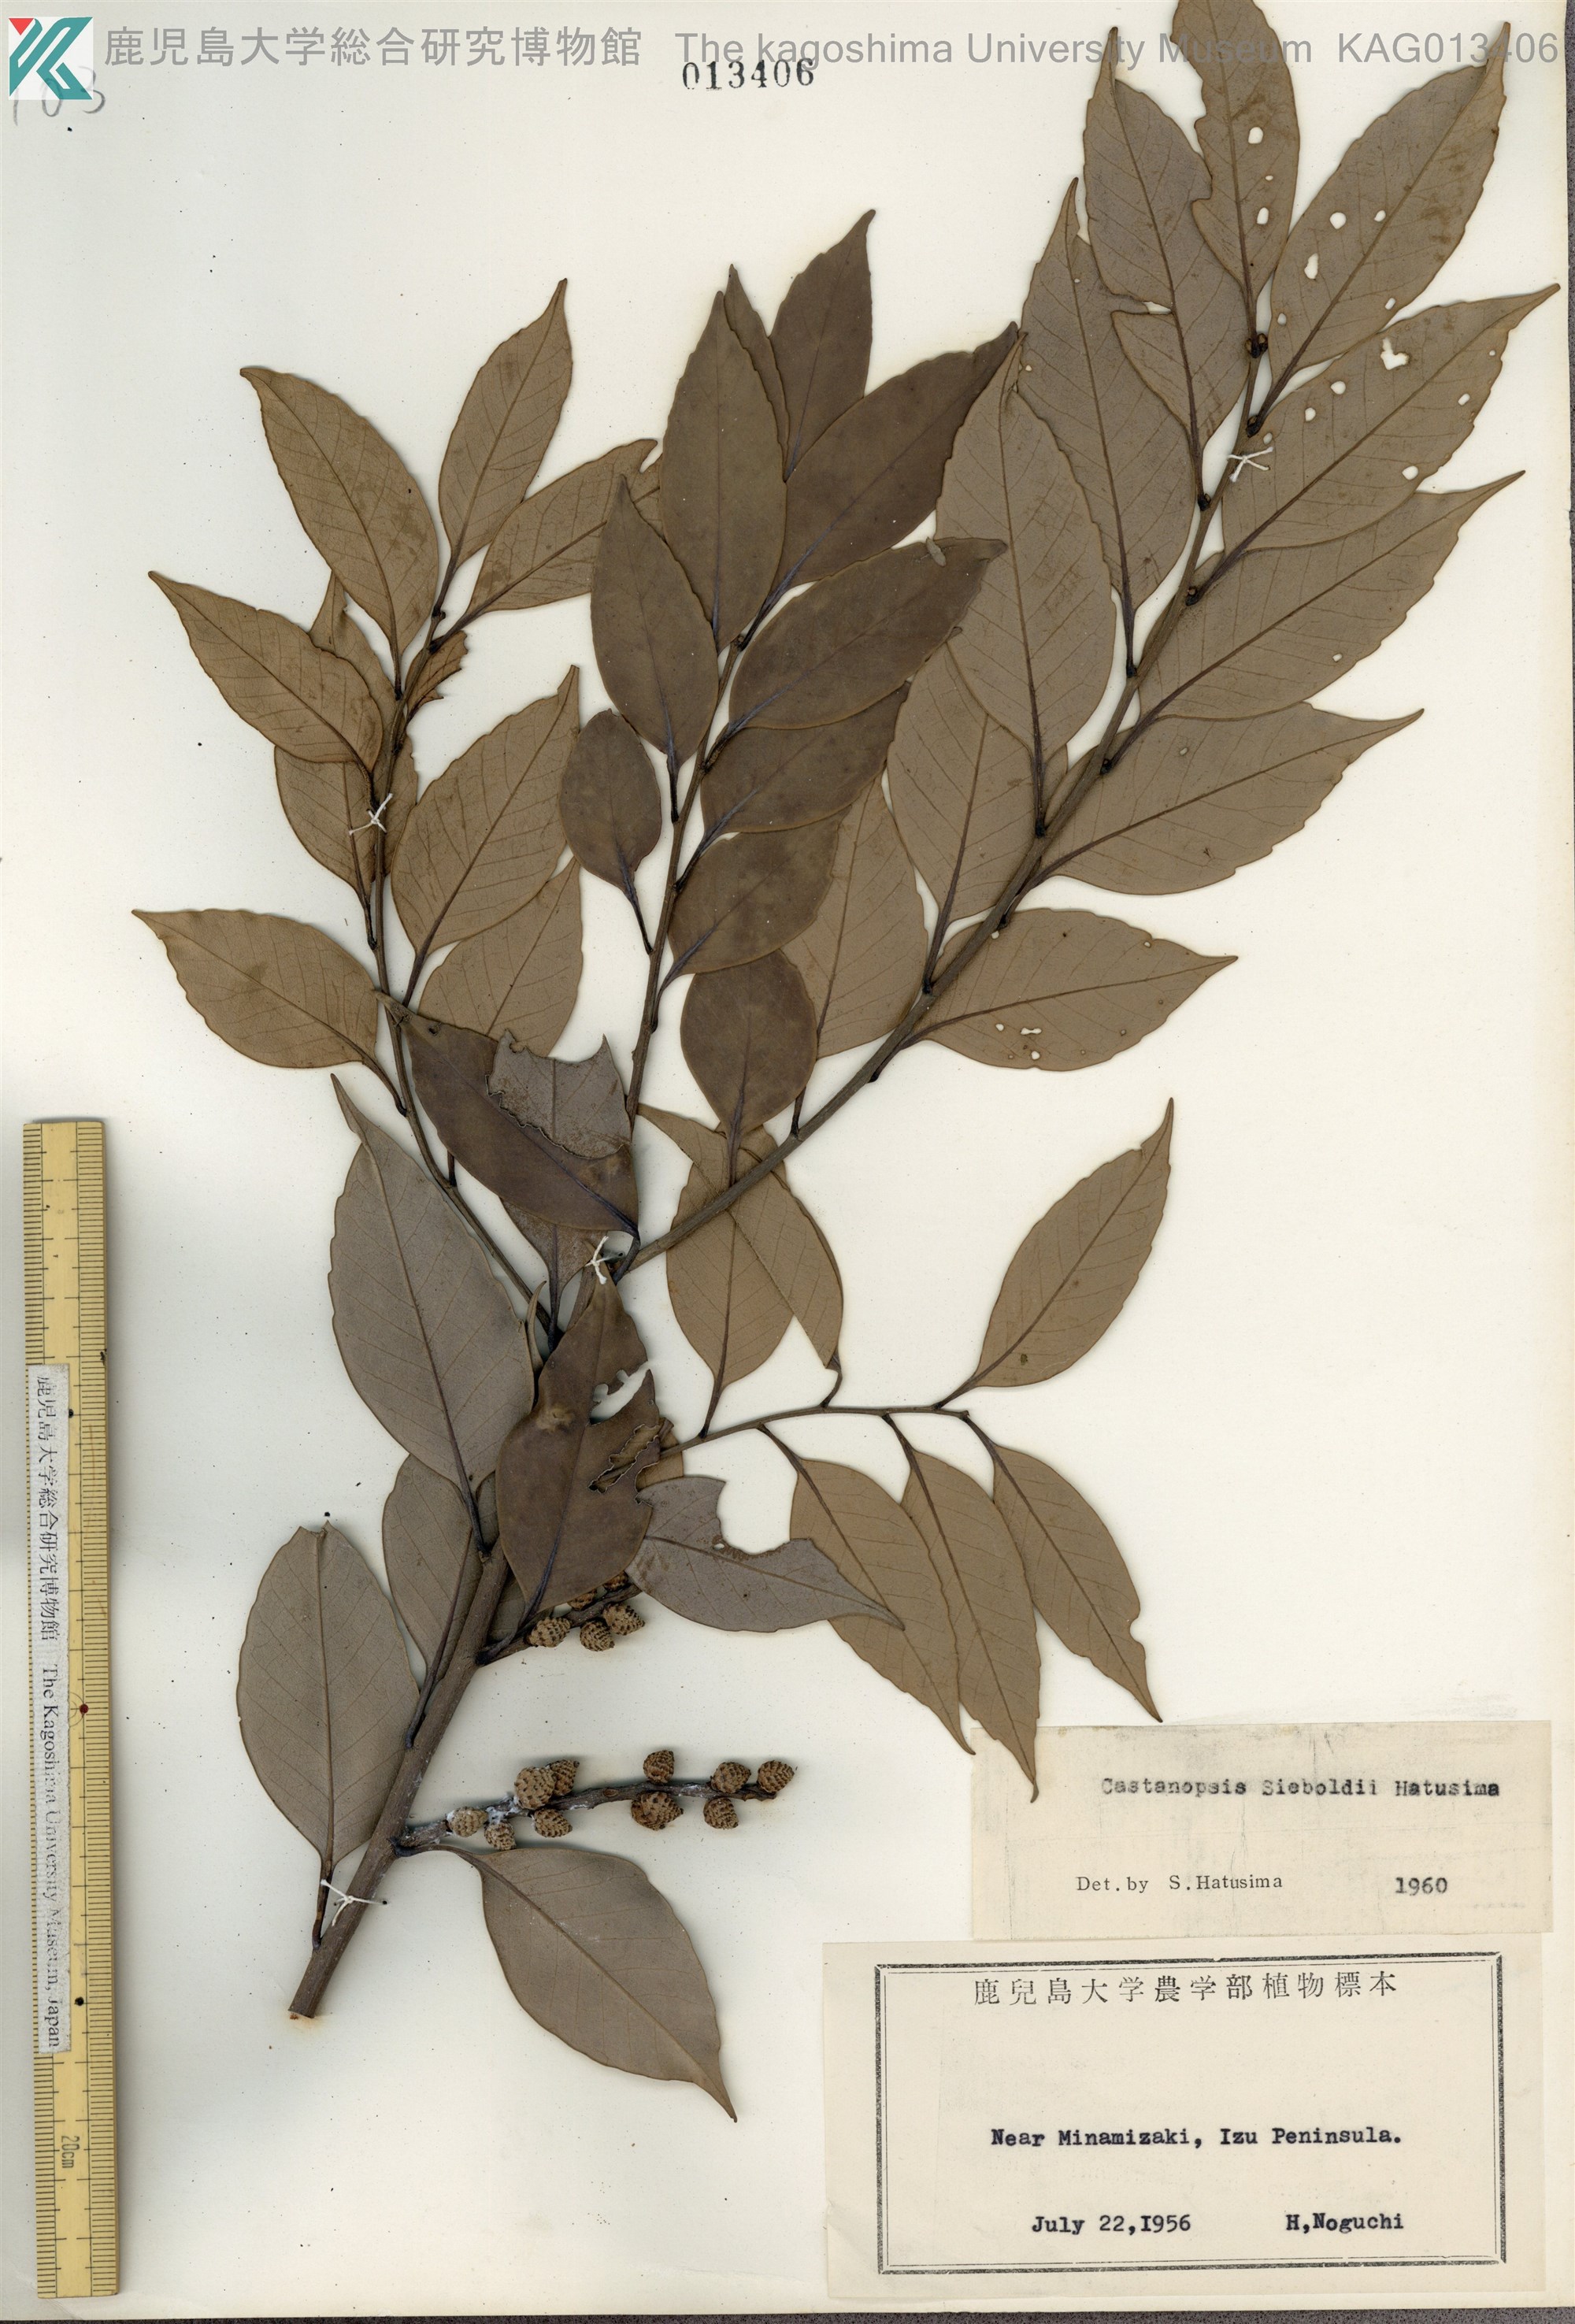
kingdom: Plantae
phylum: Tracheophyta
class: Magnoliopsida
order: Fagales
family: Fagaceae
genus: Castanopsis
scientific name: Castanopsis sieboldii
